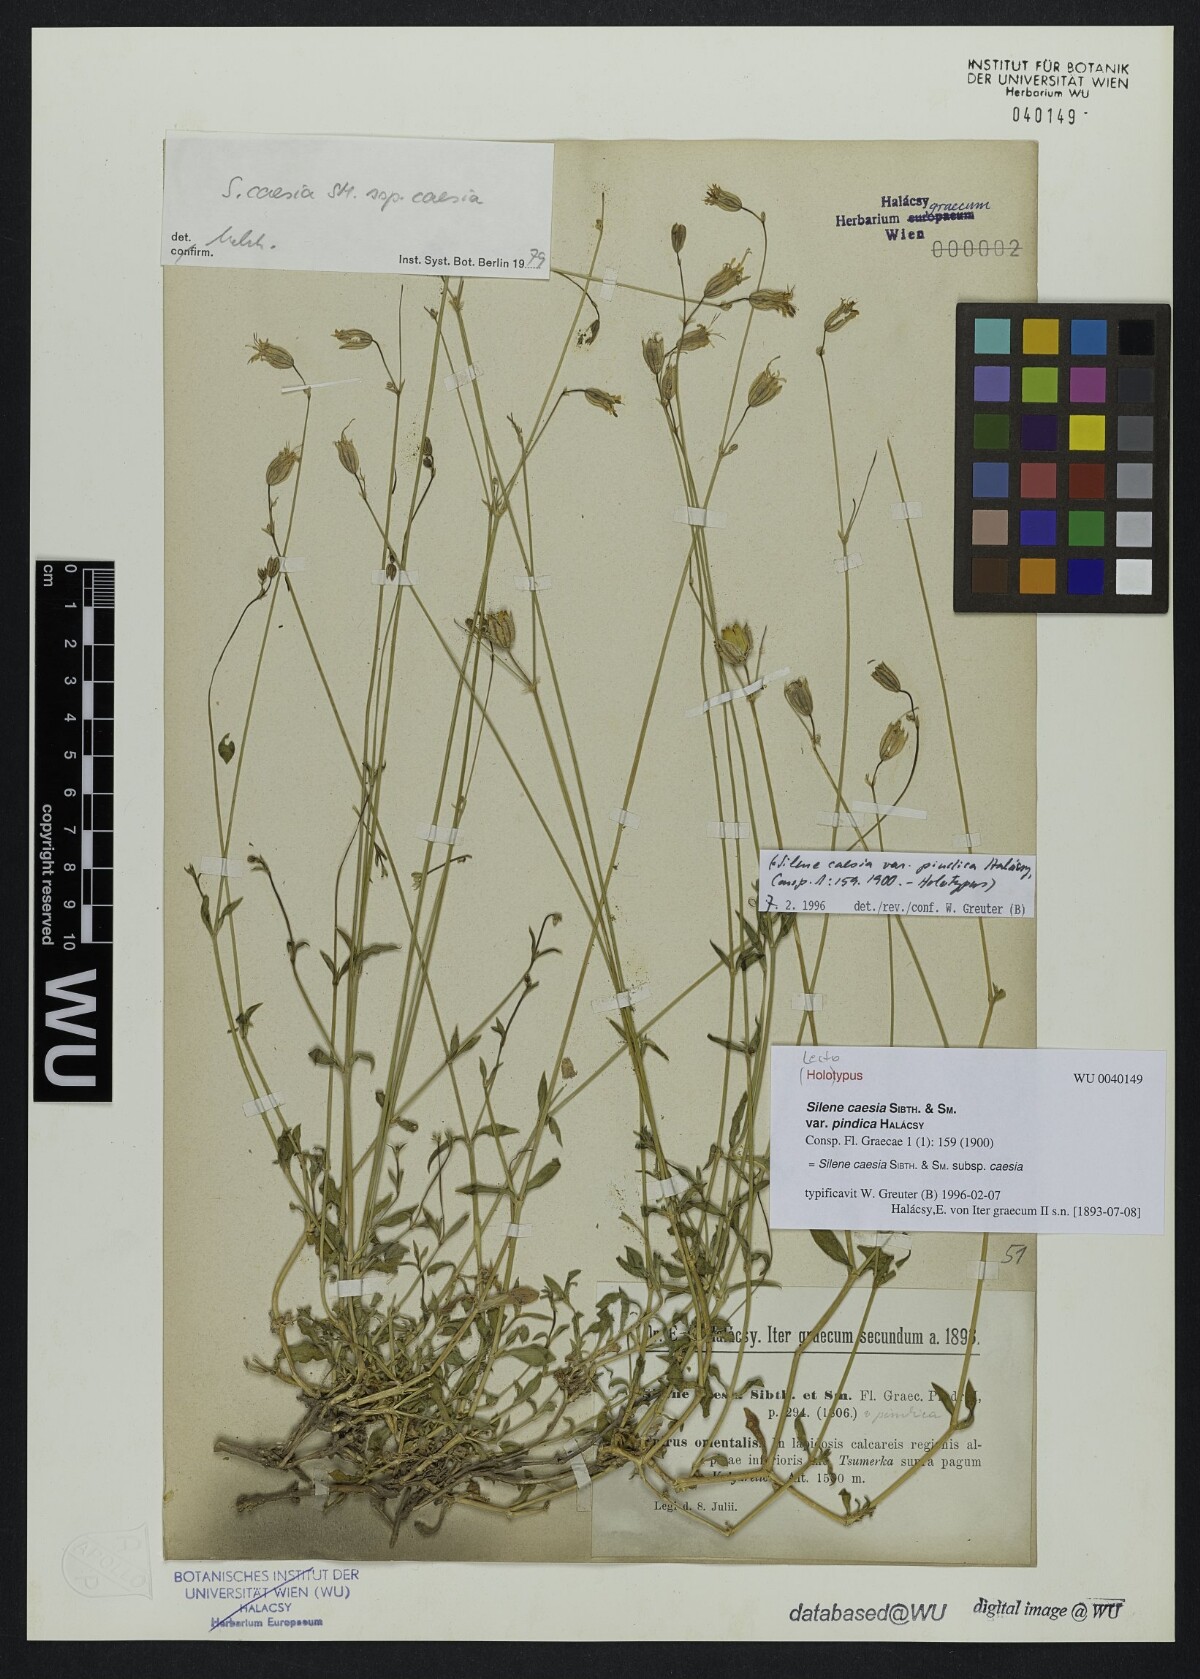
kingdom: Plantae
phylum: Tracheophyta
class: Magnoliopsida
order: Caryophyllales
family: Caryophyllaceae
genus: Silene
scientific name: Silene caesia
